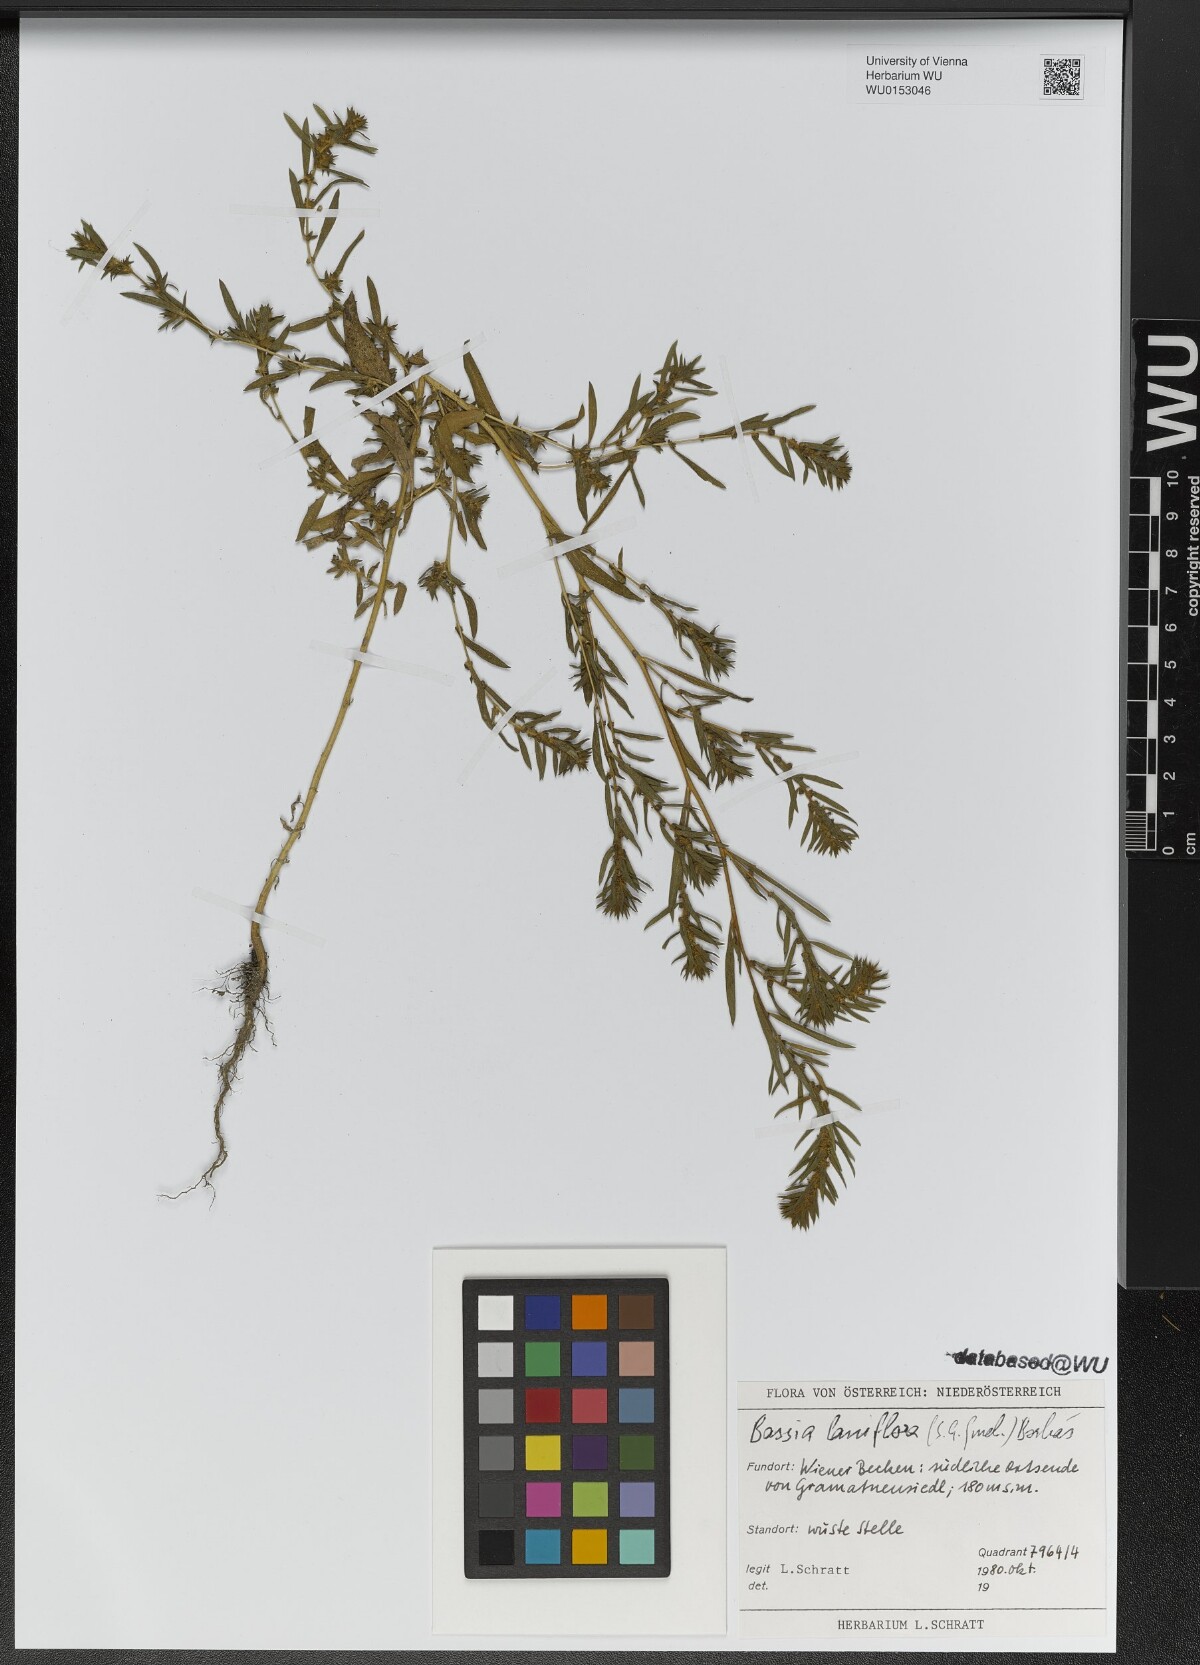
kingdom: Plantae
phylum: Tracheophyta
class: Magnoliopsida
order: Caryophyllales
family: Amaranthaceae
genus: Bassia
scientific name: Bassia laniflora
